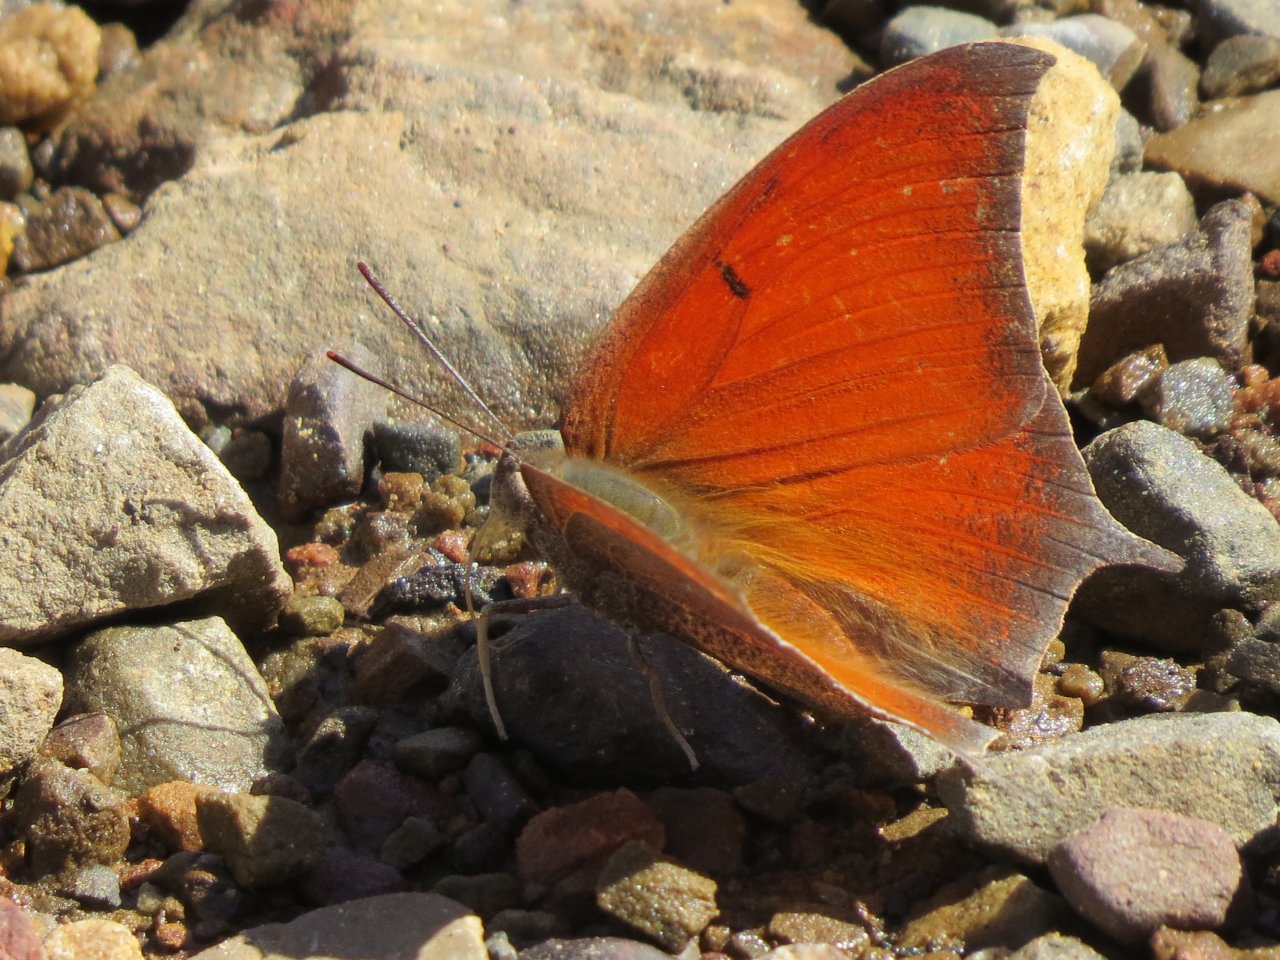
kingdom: Animalia
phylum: Arthropoda
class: Insecta
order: Lepidoptera
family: Nymphalidae
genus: Anaea
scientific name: Anaea andria
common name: Goatweed Leafwing
